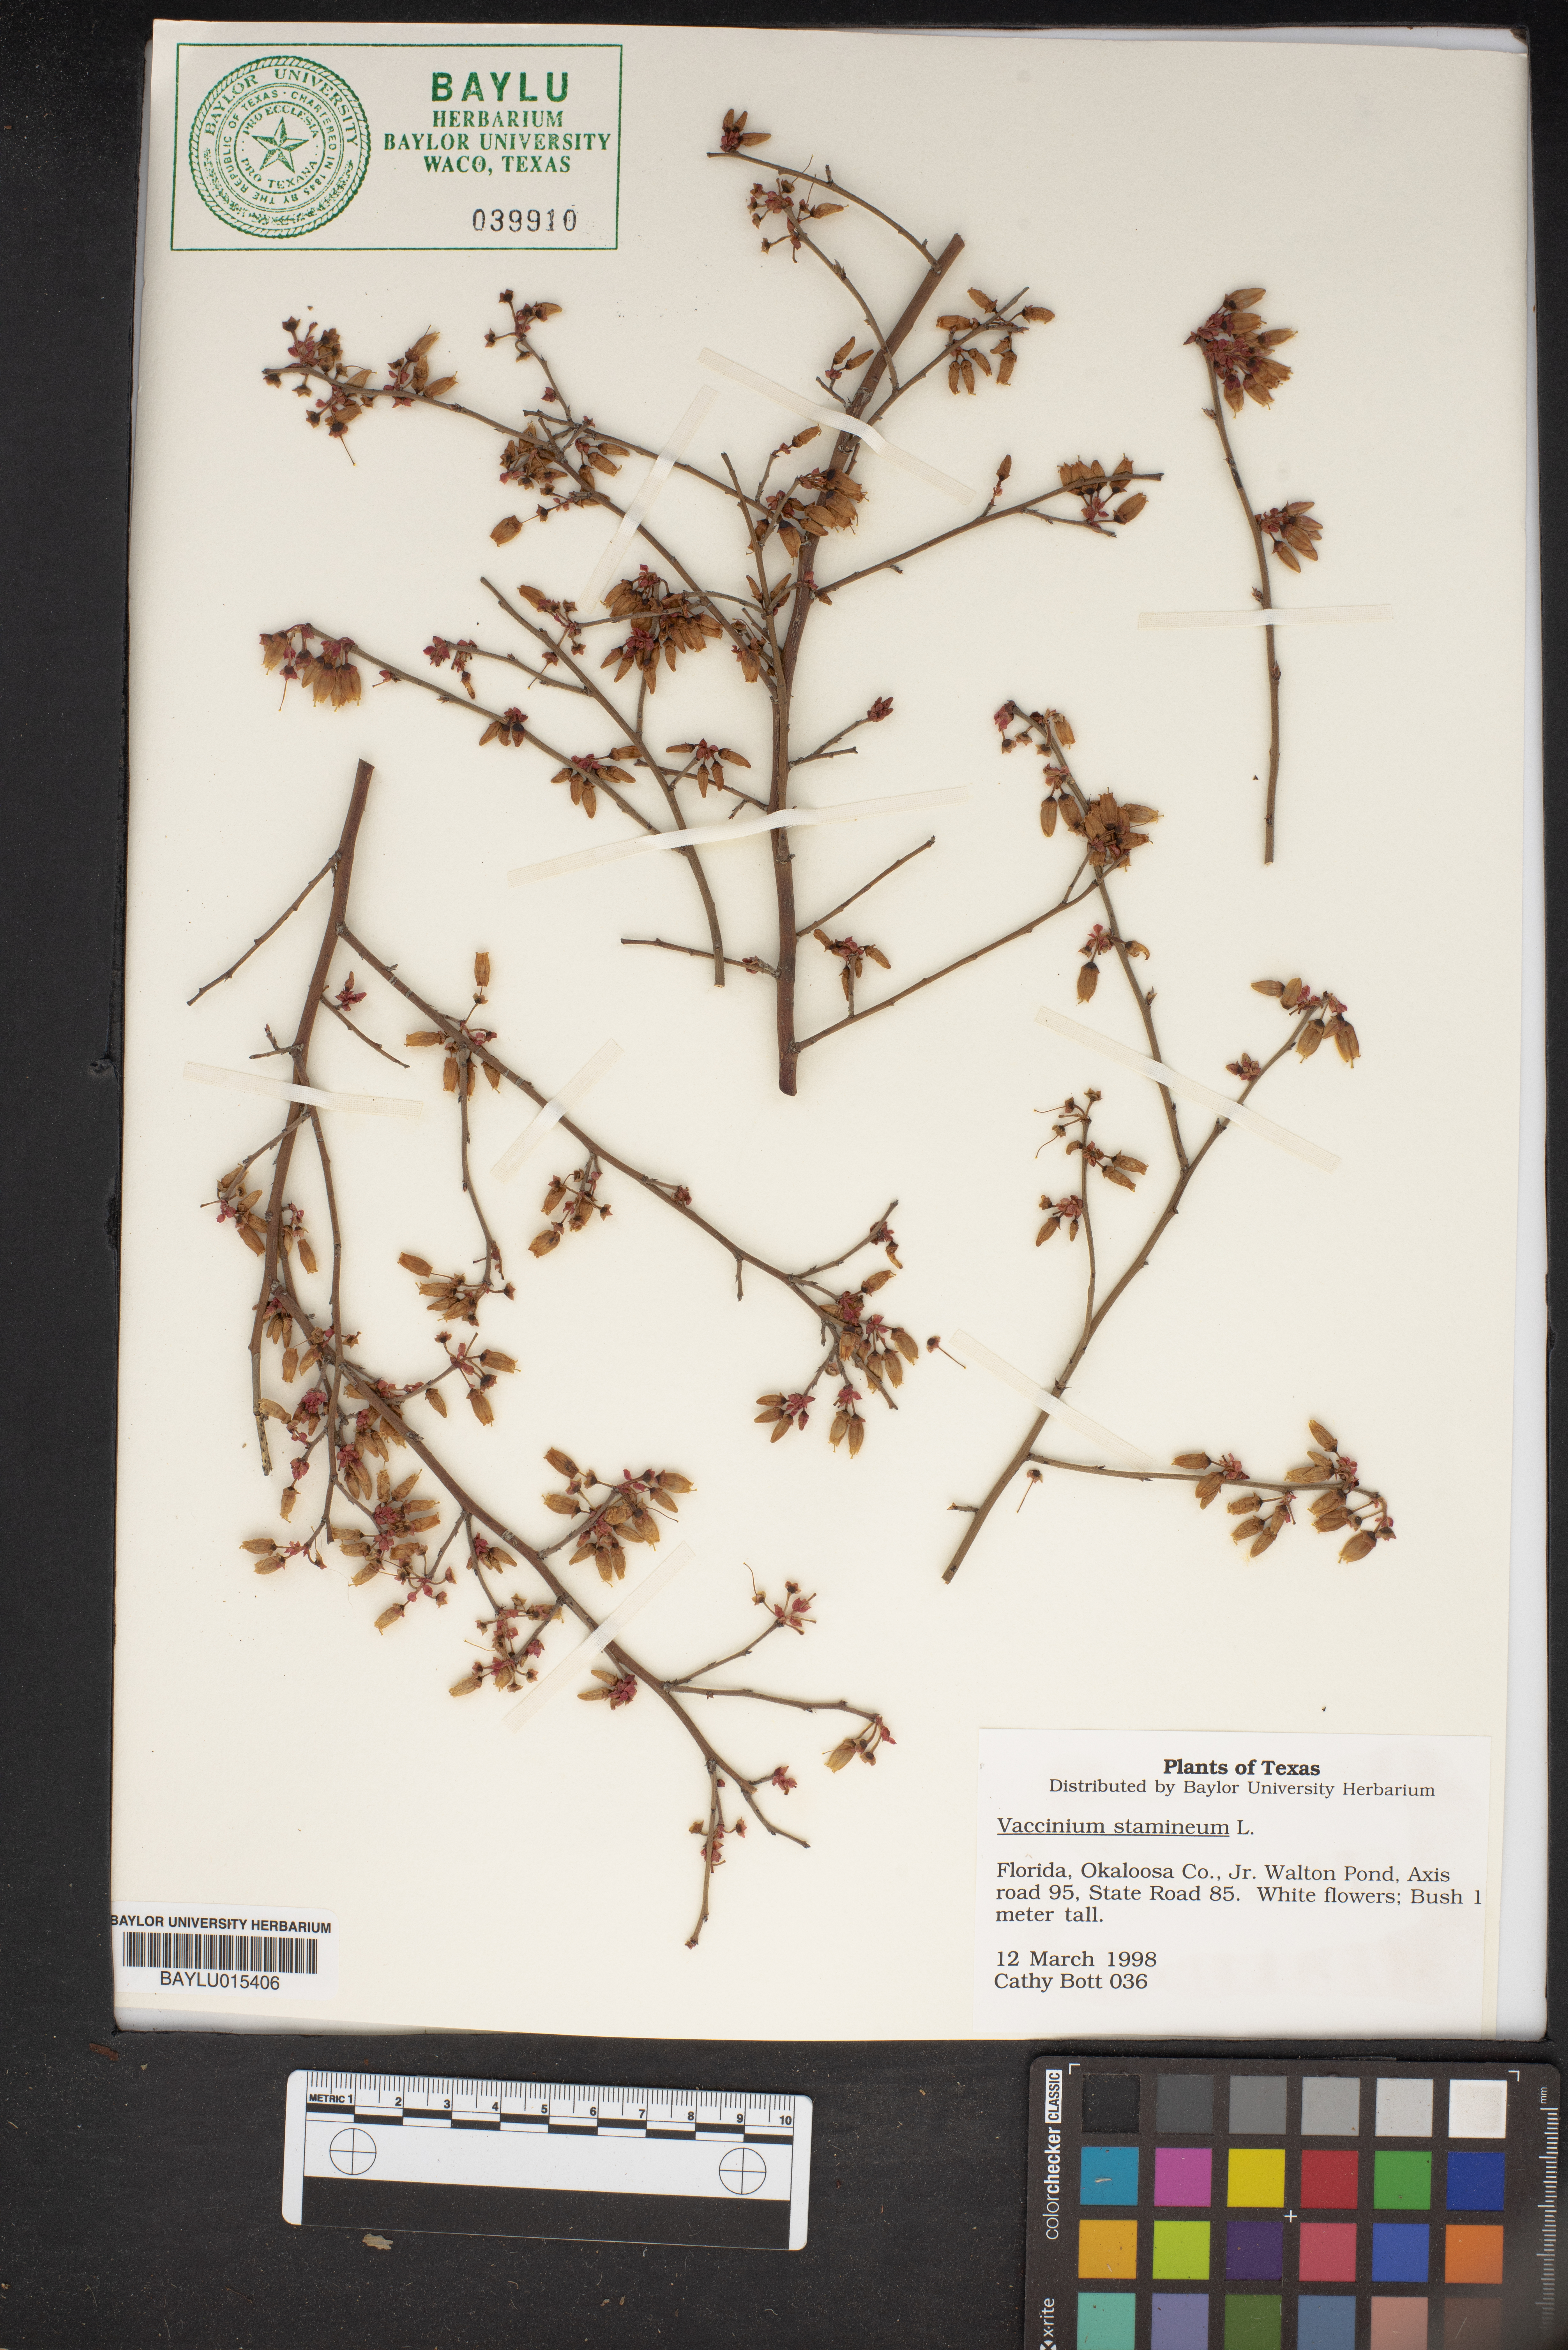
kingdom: Plantae
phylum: Tracheophyta
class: Magnoliopsida
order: Ericales
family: Ericaceae
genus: Vaccinium
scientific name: Vaccinium stamineum
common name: Deerberry
